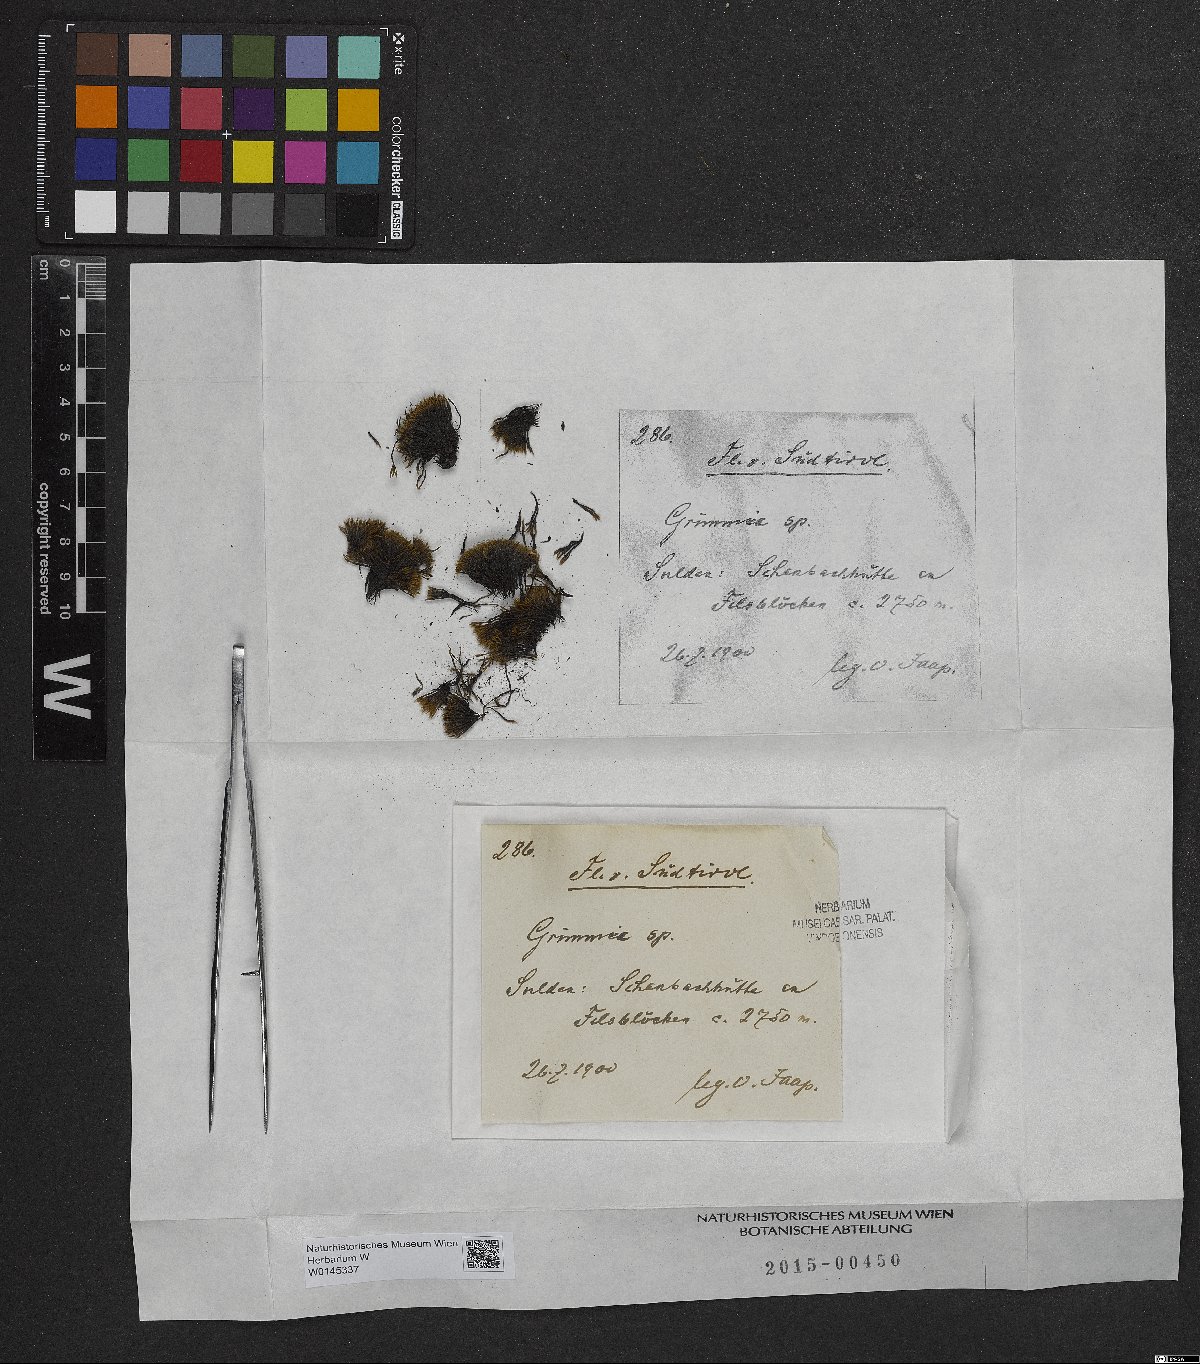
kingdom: Plantae
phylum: Bryophyta
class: Bryopsida
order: Grimmiales
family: Grimmiaceae
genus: Grimmia
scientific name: Grimmia
